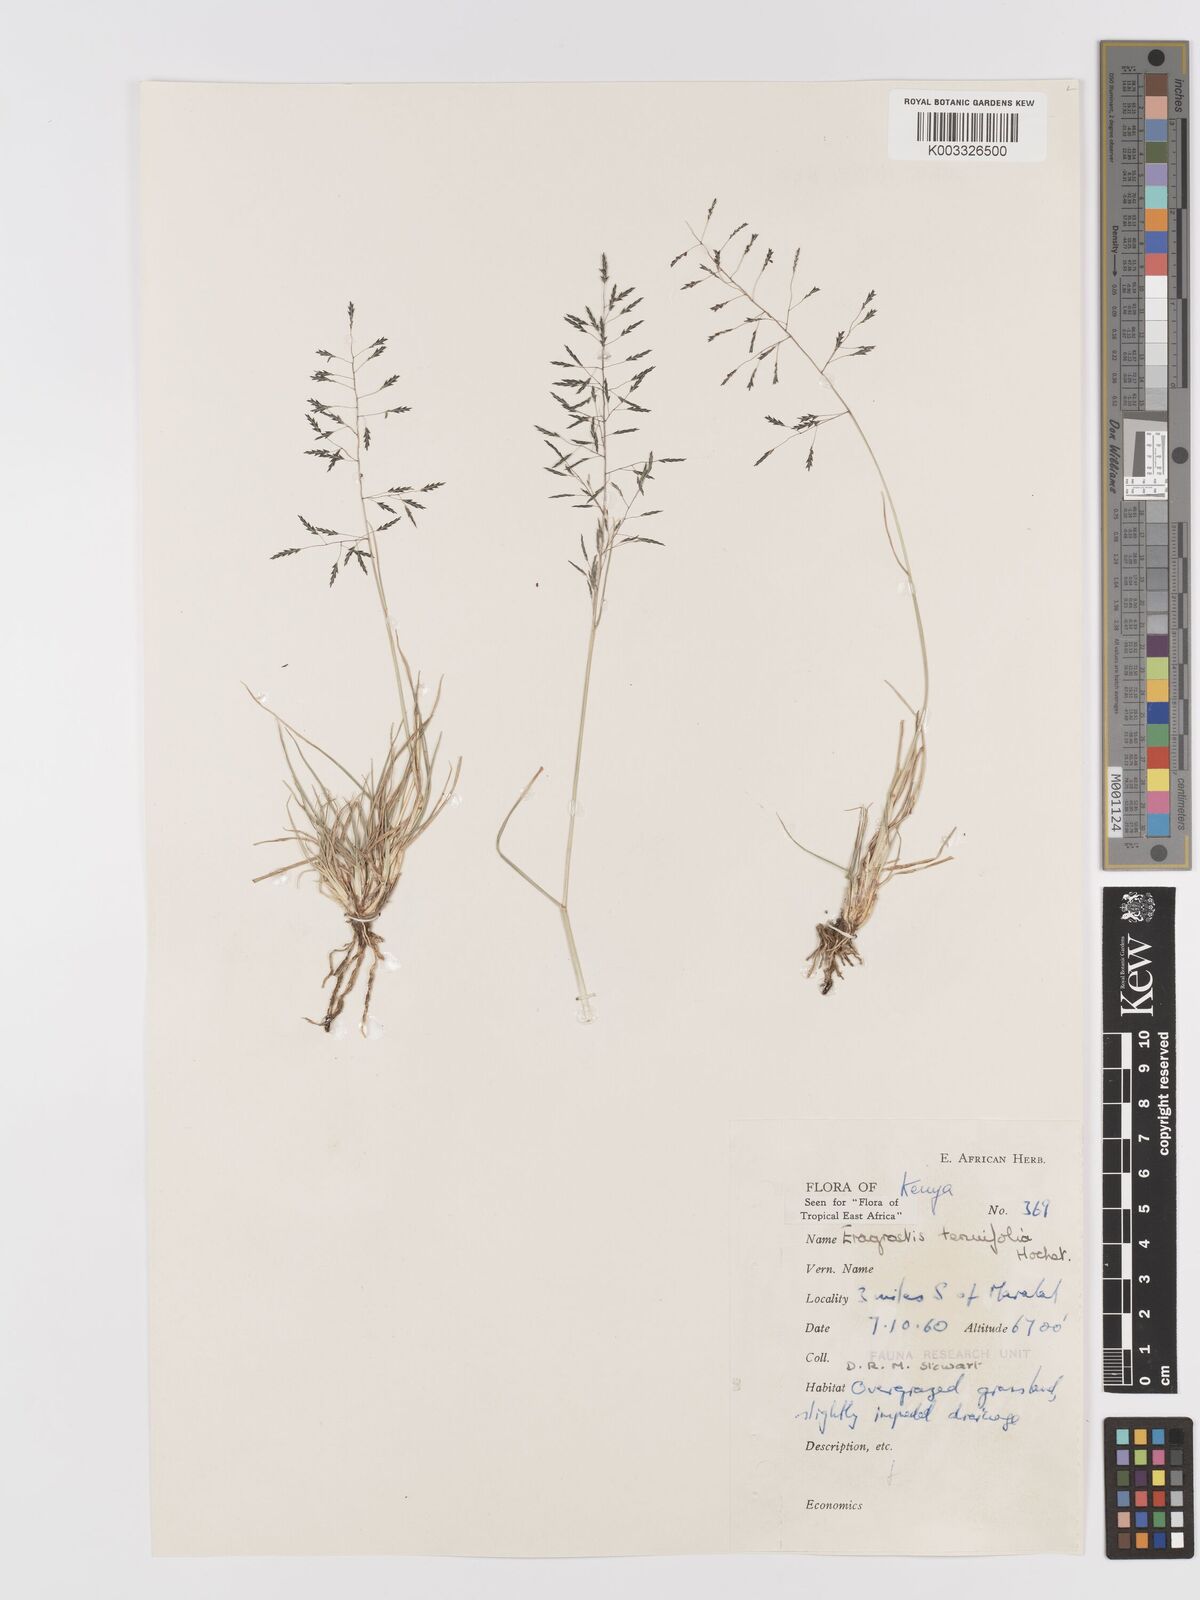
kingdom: Plantae
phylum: Tracheophyta
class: Liliopsida
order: Poales
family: Poaceae
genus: Eragrostis
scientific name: Eragrostis tenuifolia
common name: Elastic grass
